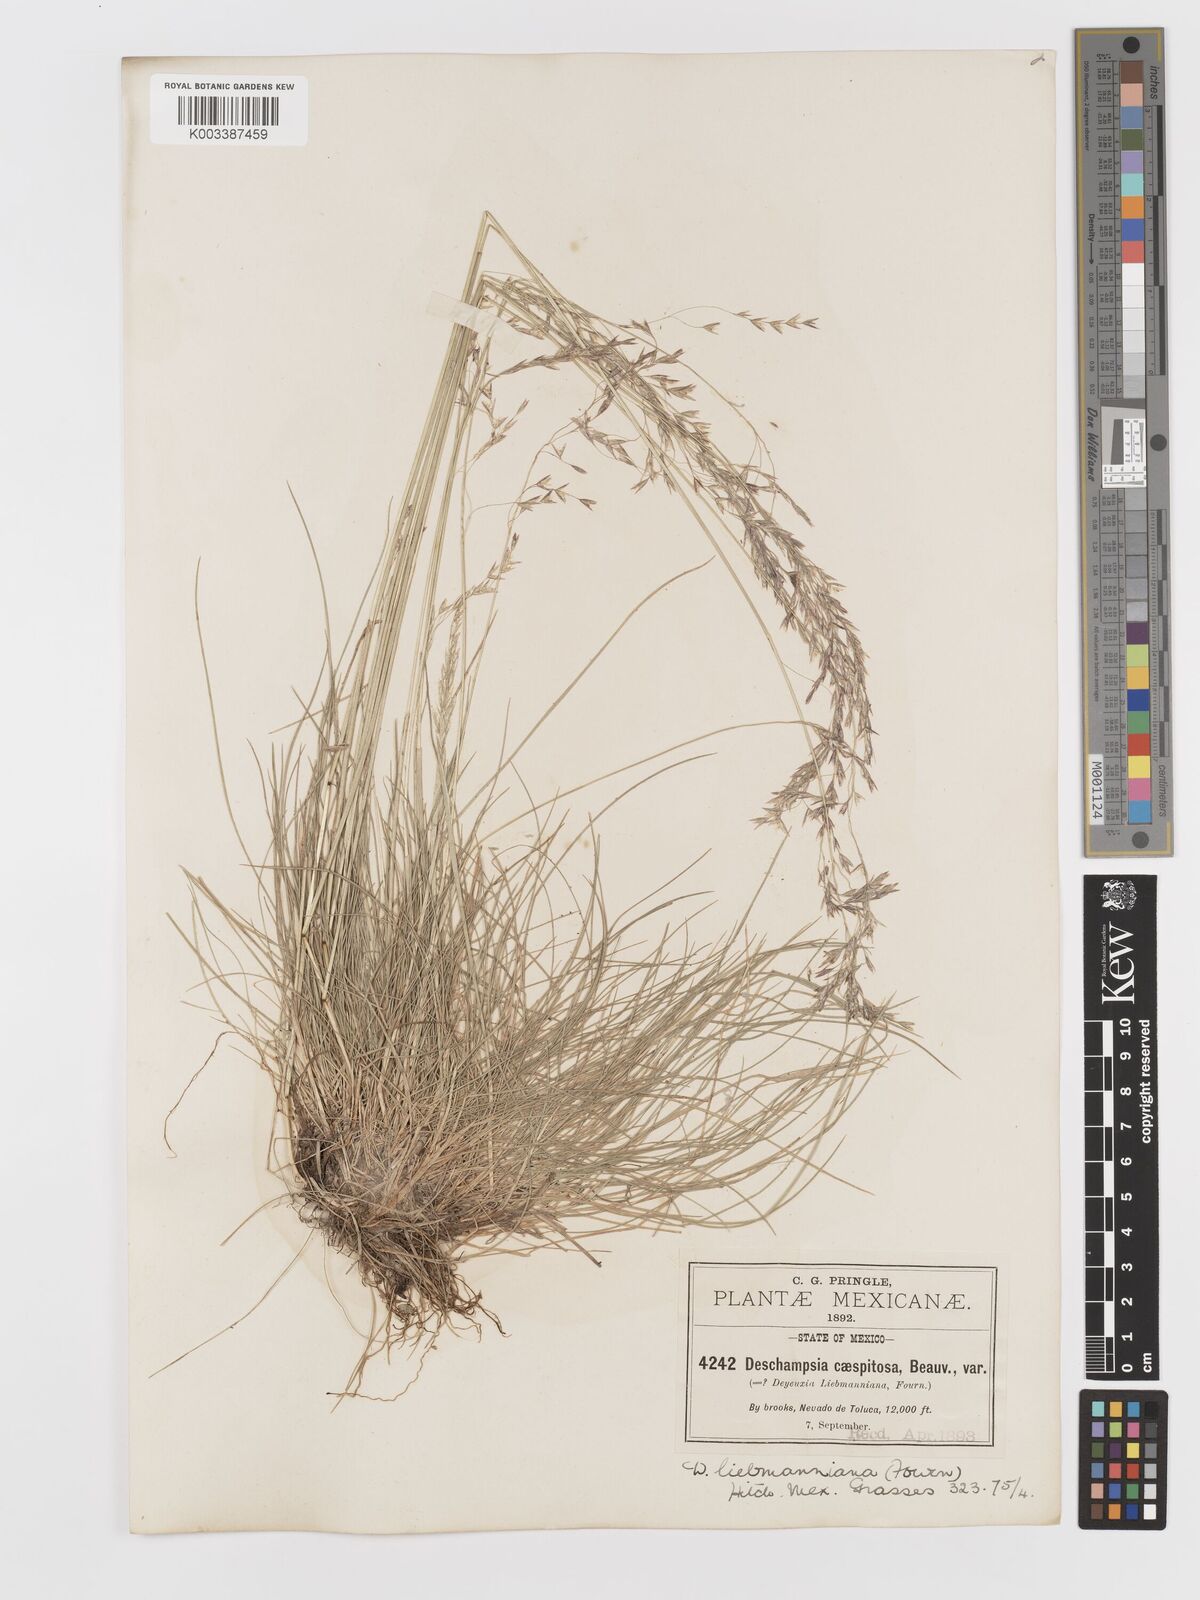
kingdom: Plantae
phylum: Tracheophyta
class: Liliopsida
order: Poales
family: Poaceae
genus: Deschampsia
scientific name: Deschampsia liebmanniana
